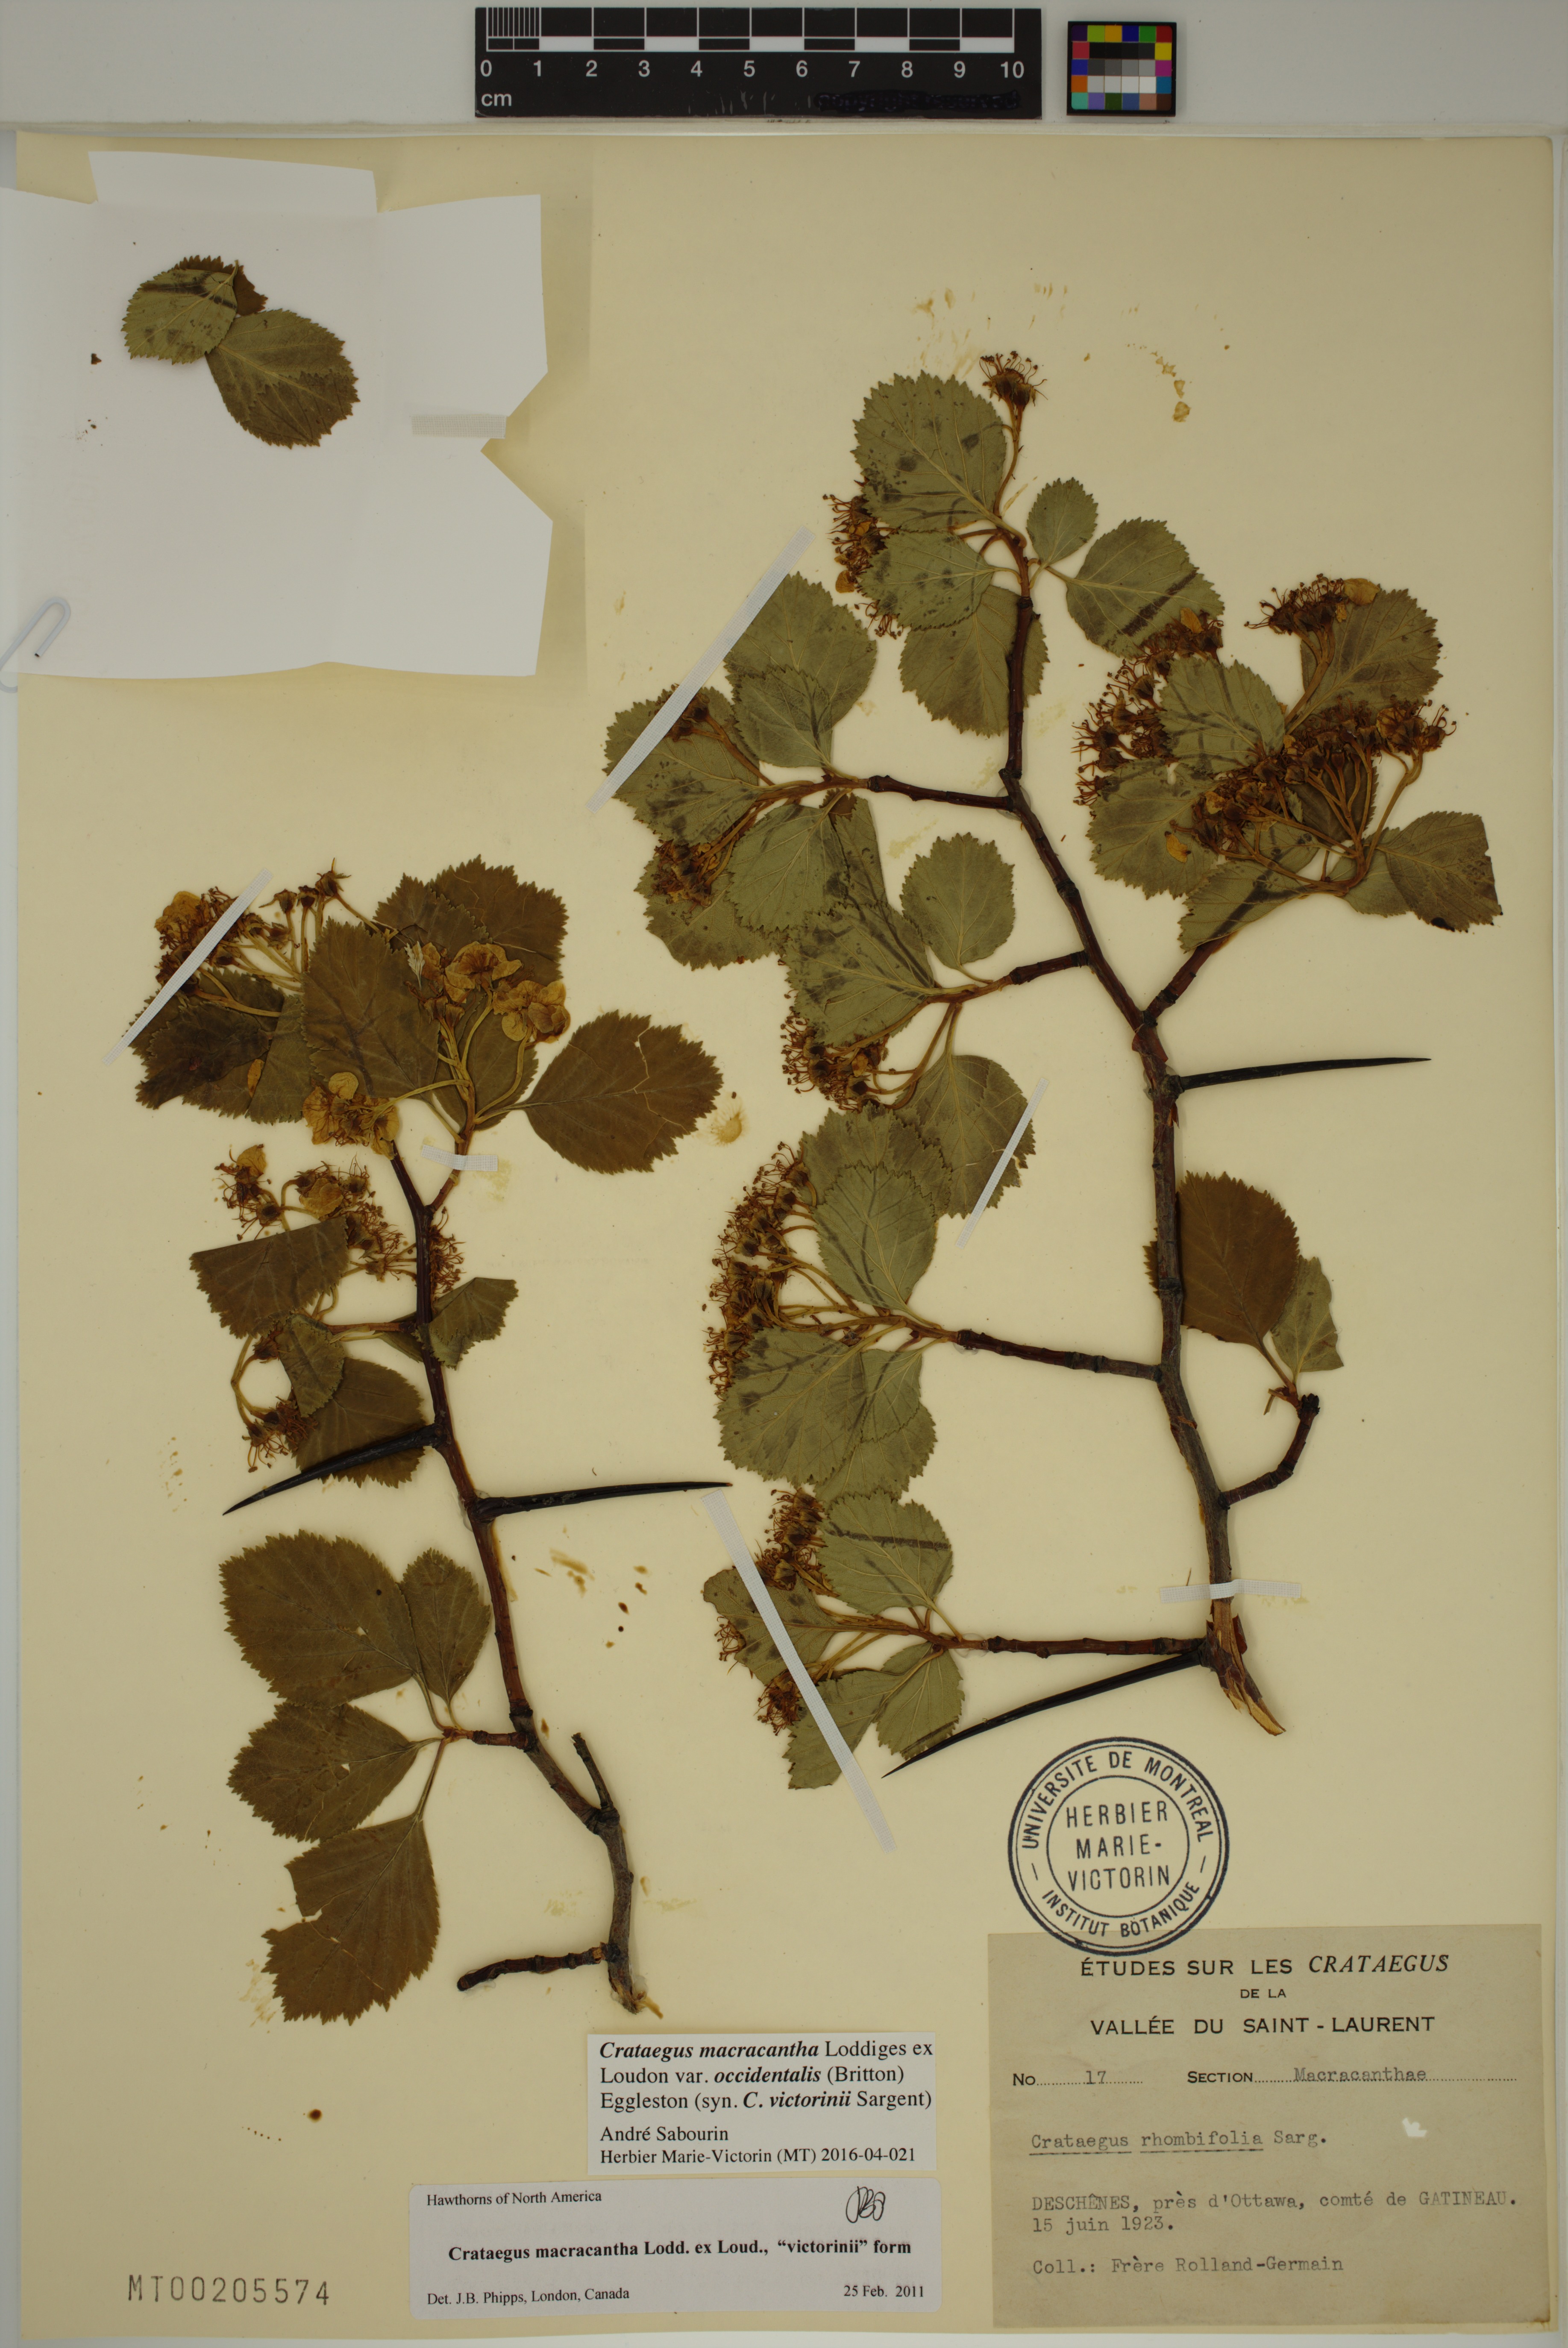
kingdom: Plantae
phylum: Tracheophyta
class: Magnoliopsida
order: Rosales
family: Rosaceae
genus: Crataegus
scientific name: Crataegus macracantha
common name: Large-thorn hawthorn
